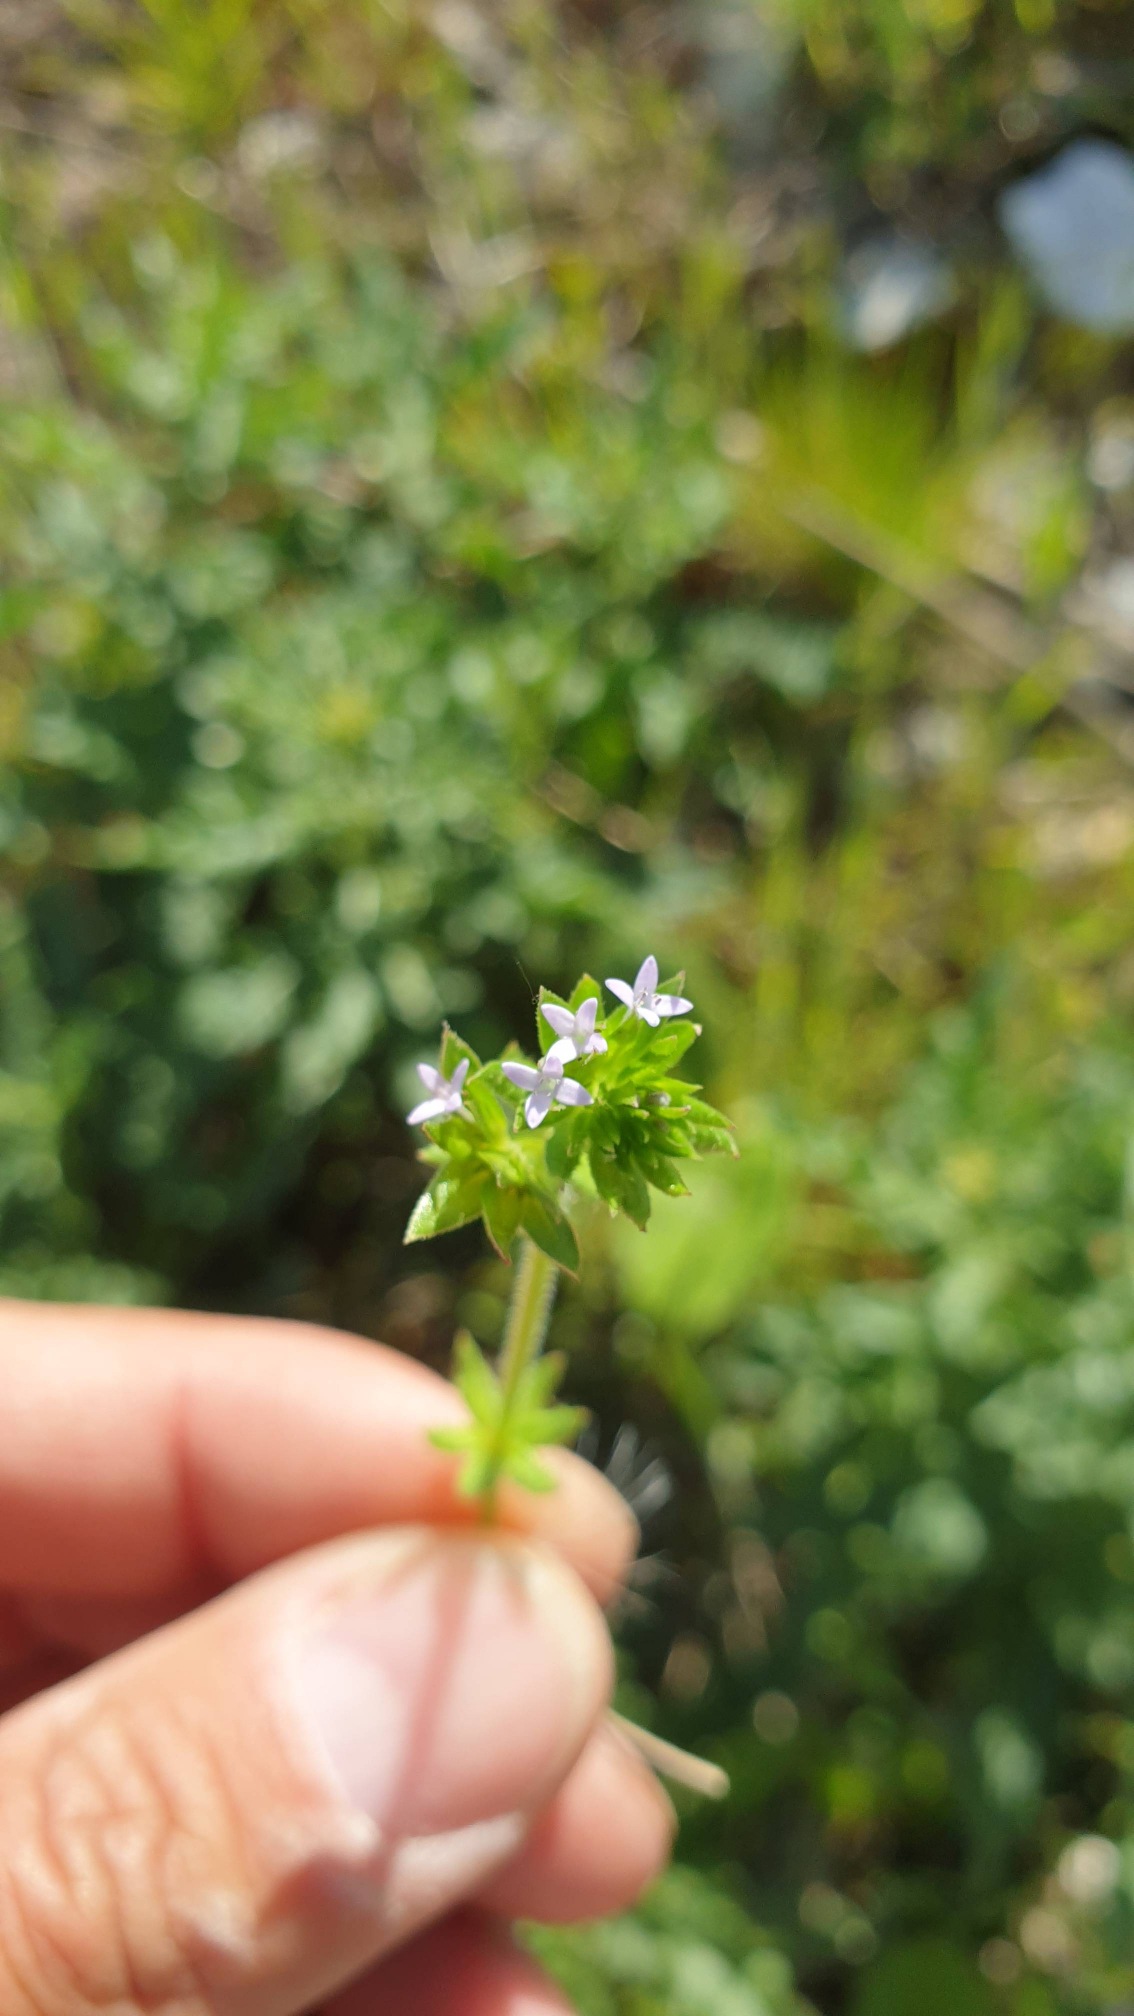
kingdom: Plantae
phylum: Tracheophyta
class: Magnoliopsida
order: Gentianales
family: Rubiaceae
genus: Sherardia
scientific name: Sherardia arvensis
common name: Blåstjerne
